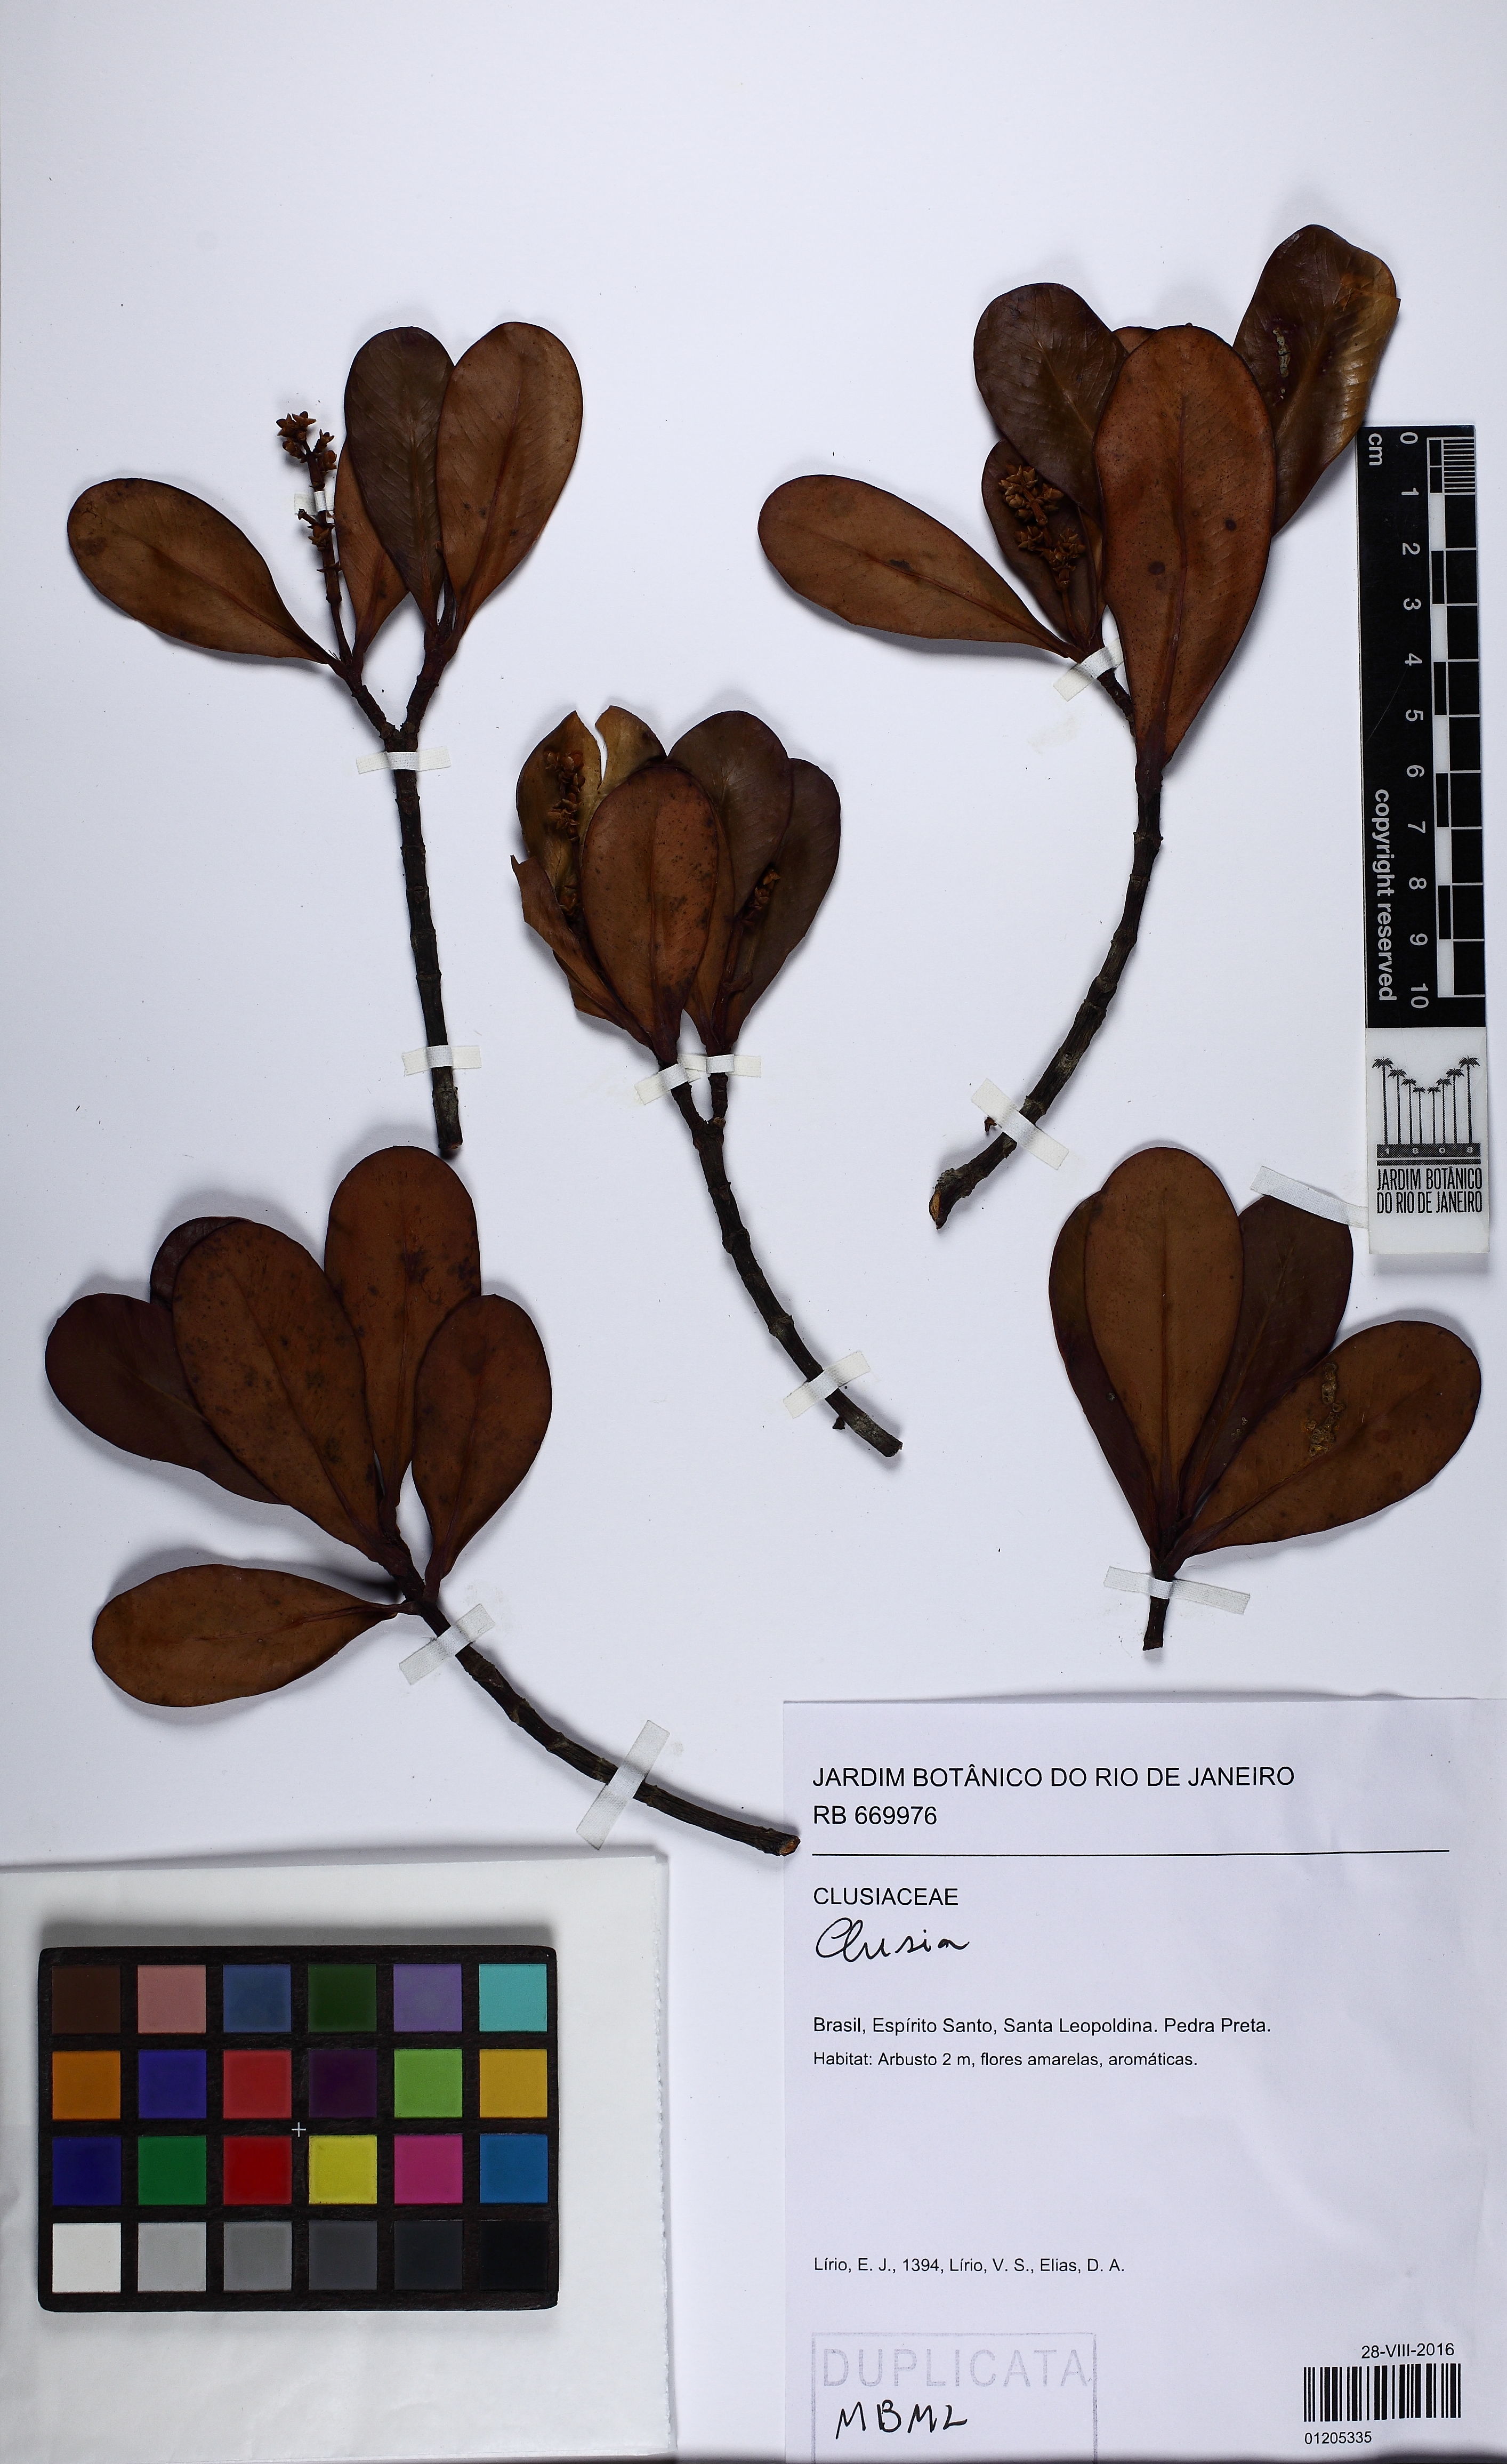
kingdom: Plantae
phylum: Tracheophyta
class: Magnoliopsida
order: Malpighiales
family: Clusiaceae
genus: Clusia
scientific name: Clusia
